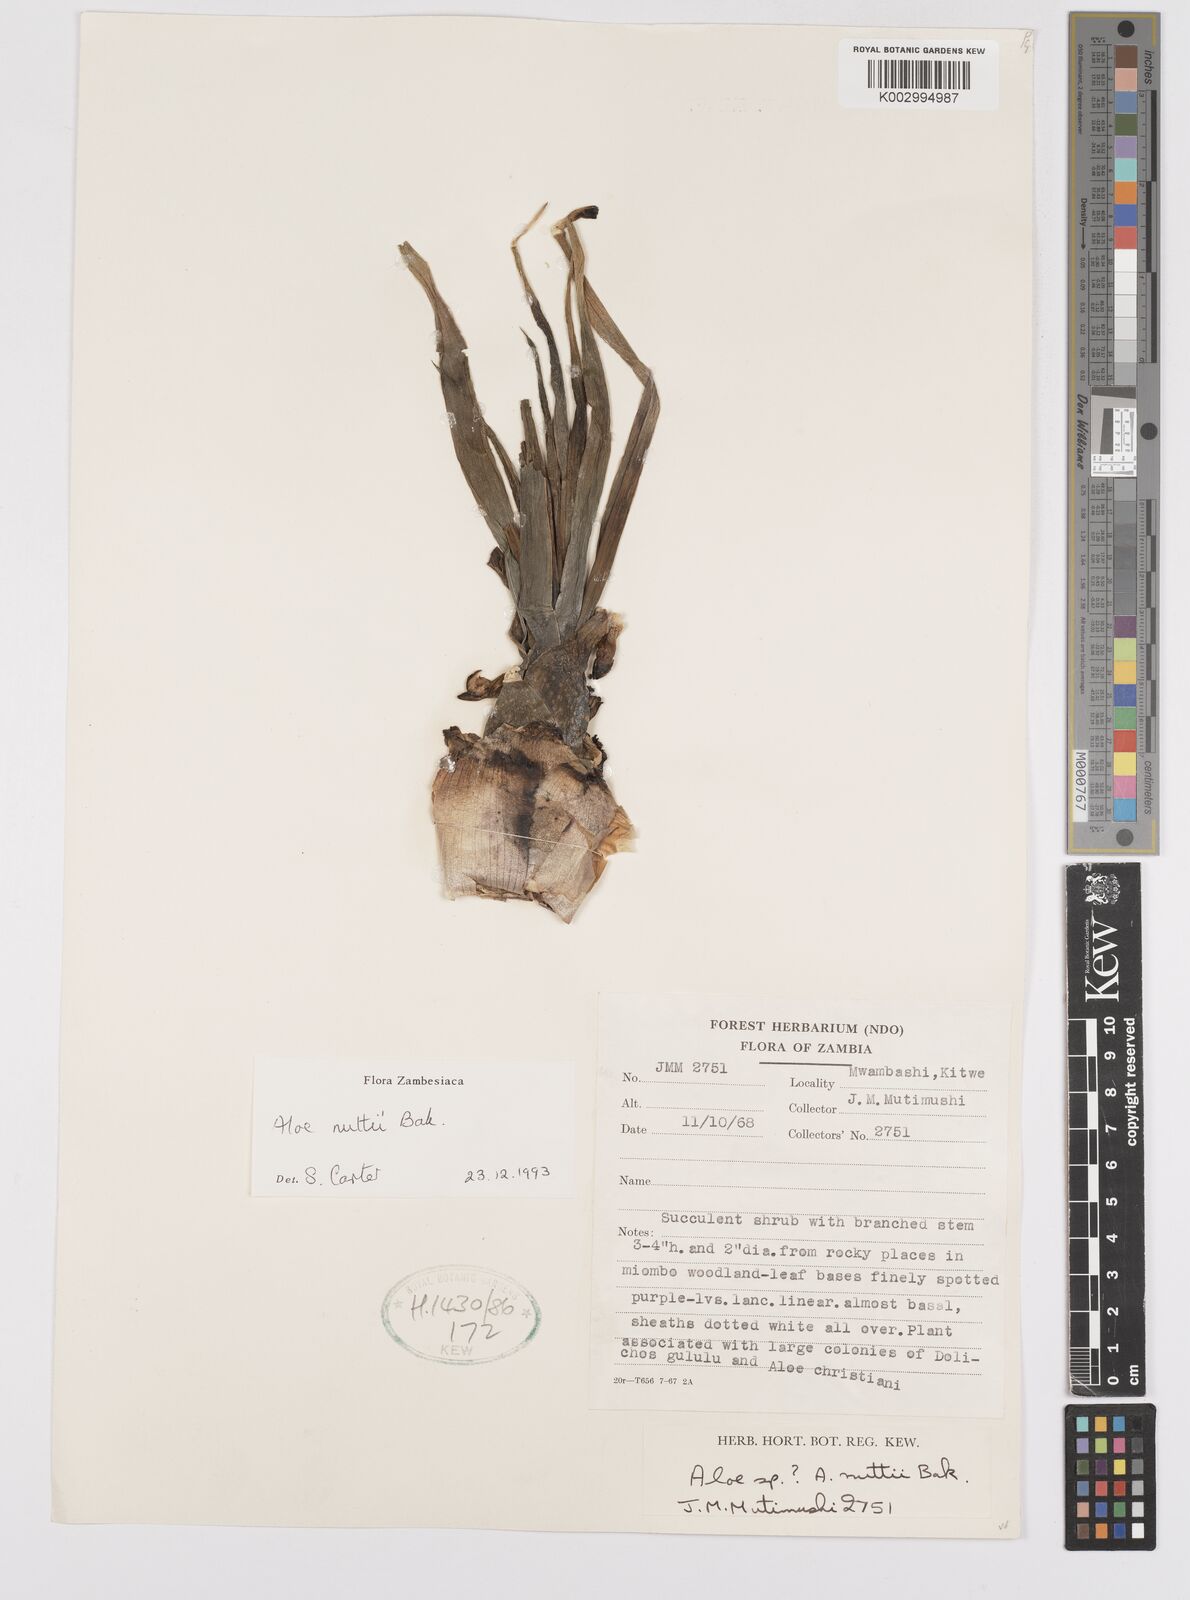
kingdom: Plantae
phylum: Tracheophyta
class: Liliopsida
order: Asparagales
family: Asphodelaceae
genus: Aloe
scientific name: Aloe nuttii
